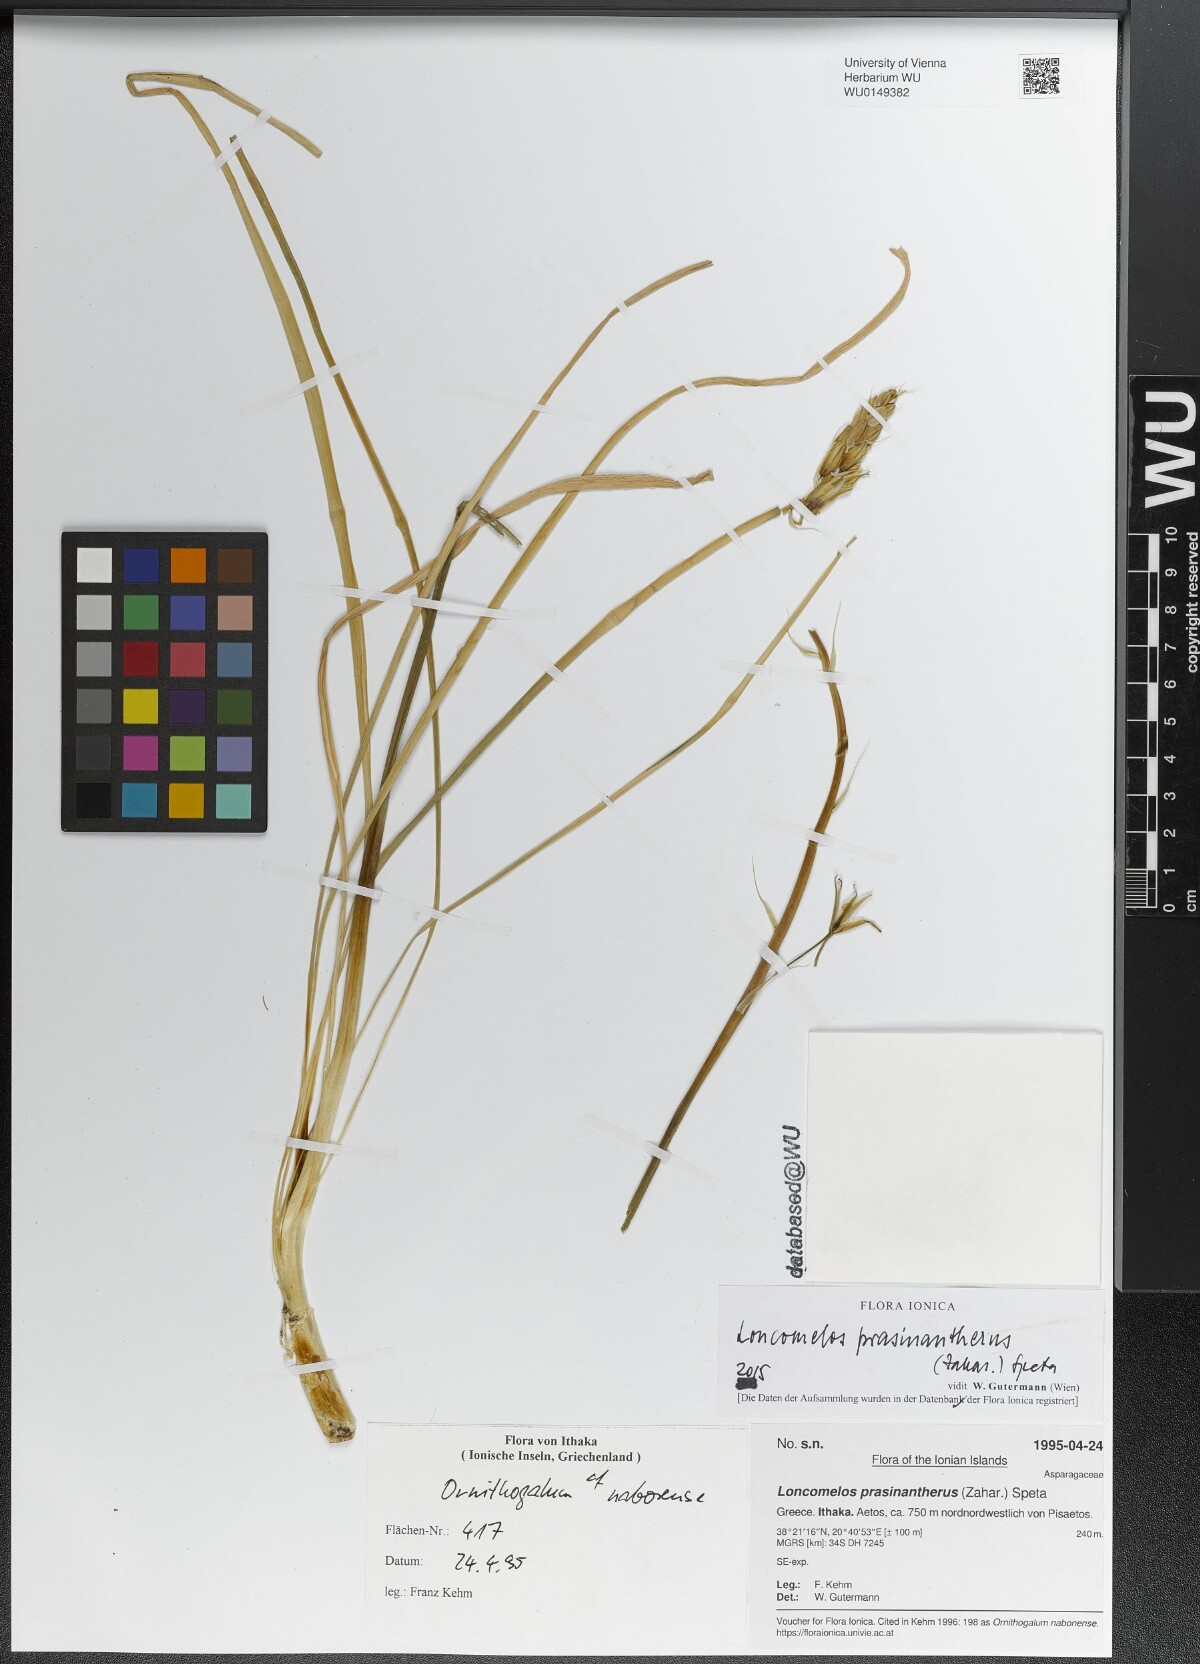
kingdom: Plantae
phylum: Tracheophyta
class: Liliopsida
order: Asparagales
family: Asparagaceae
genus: Ornithogalum
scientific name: Ornithogalum prasinantherum
